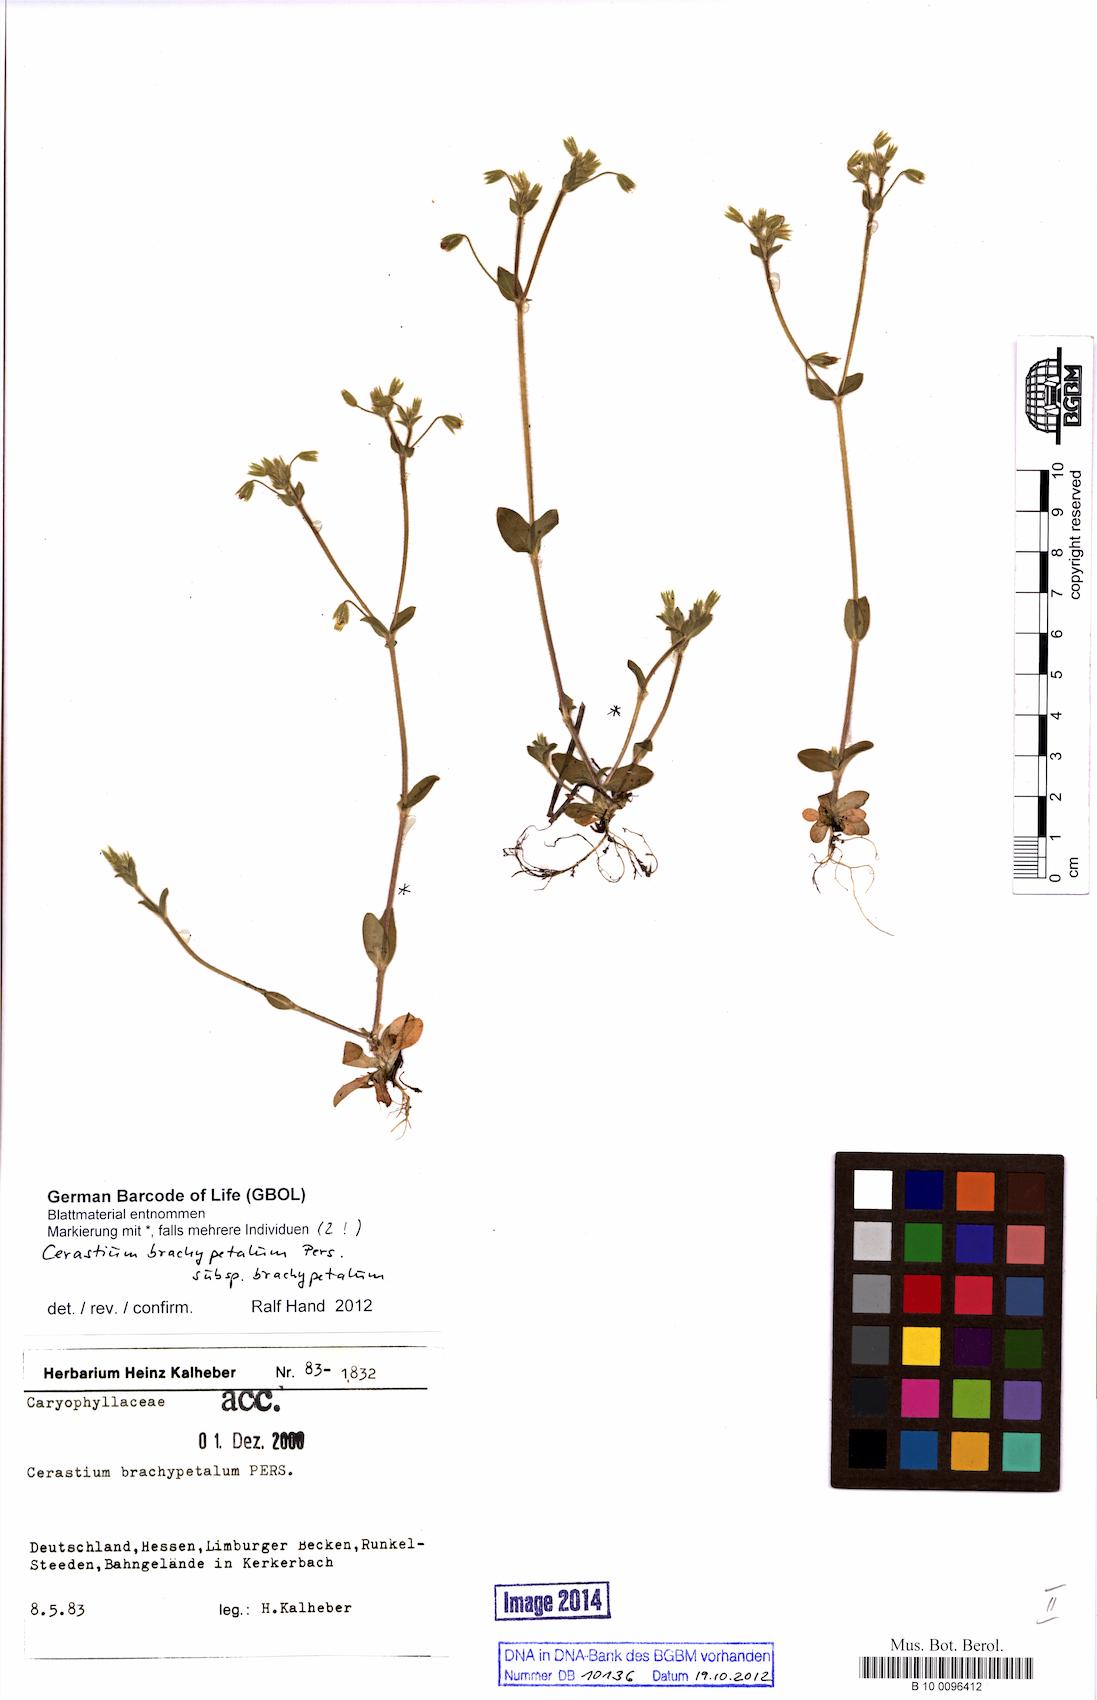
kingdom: Plantae
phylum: Tracheophyta
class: Magnoliopsida
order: Caryophyllales
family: Caryophyllaceae
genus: Cerastium
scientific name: Cerastium brachypetalum
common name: Grey mouse-ear
